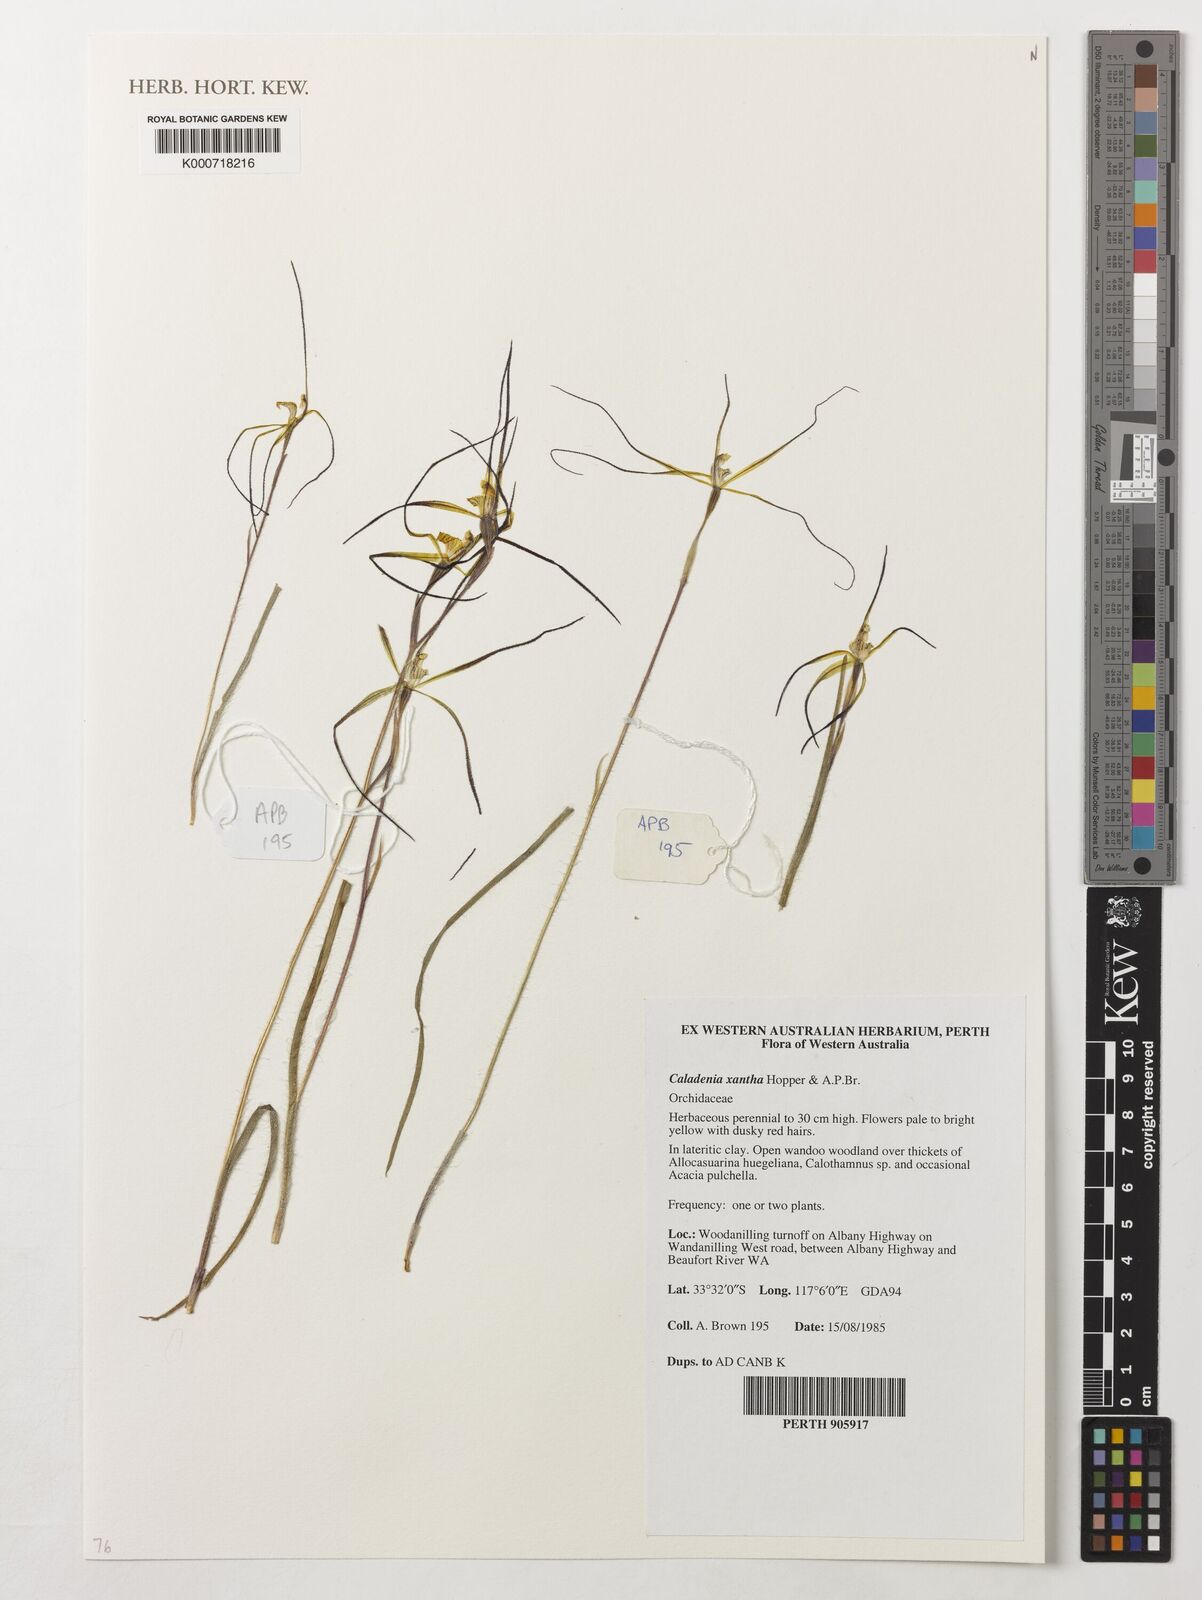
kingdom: Plantae
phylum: Tracheophyta
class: Liliopsida
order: Asparagales
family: Orchidaceae
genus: Caladenia
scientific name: Caladenia xantha
